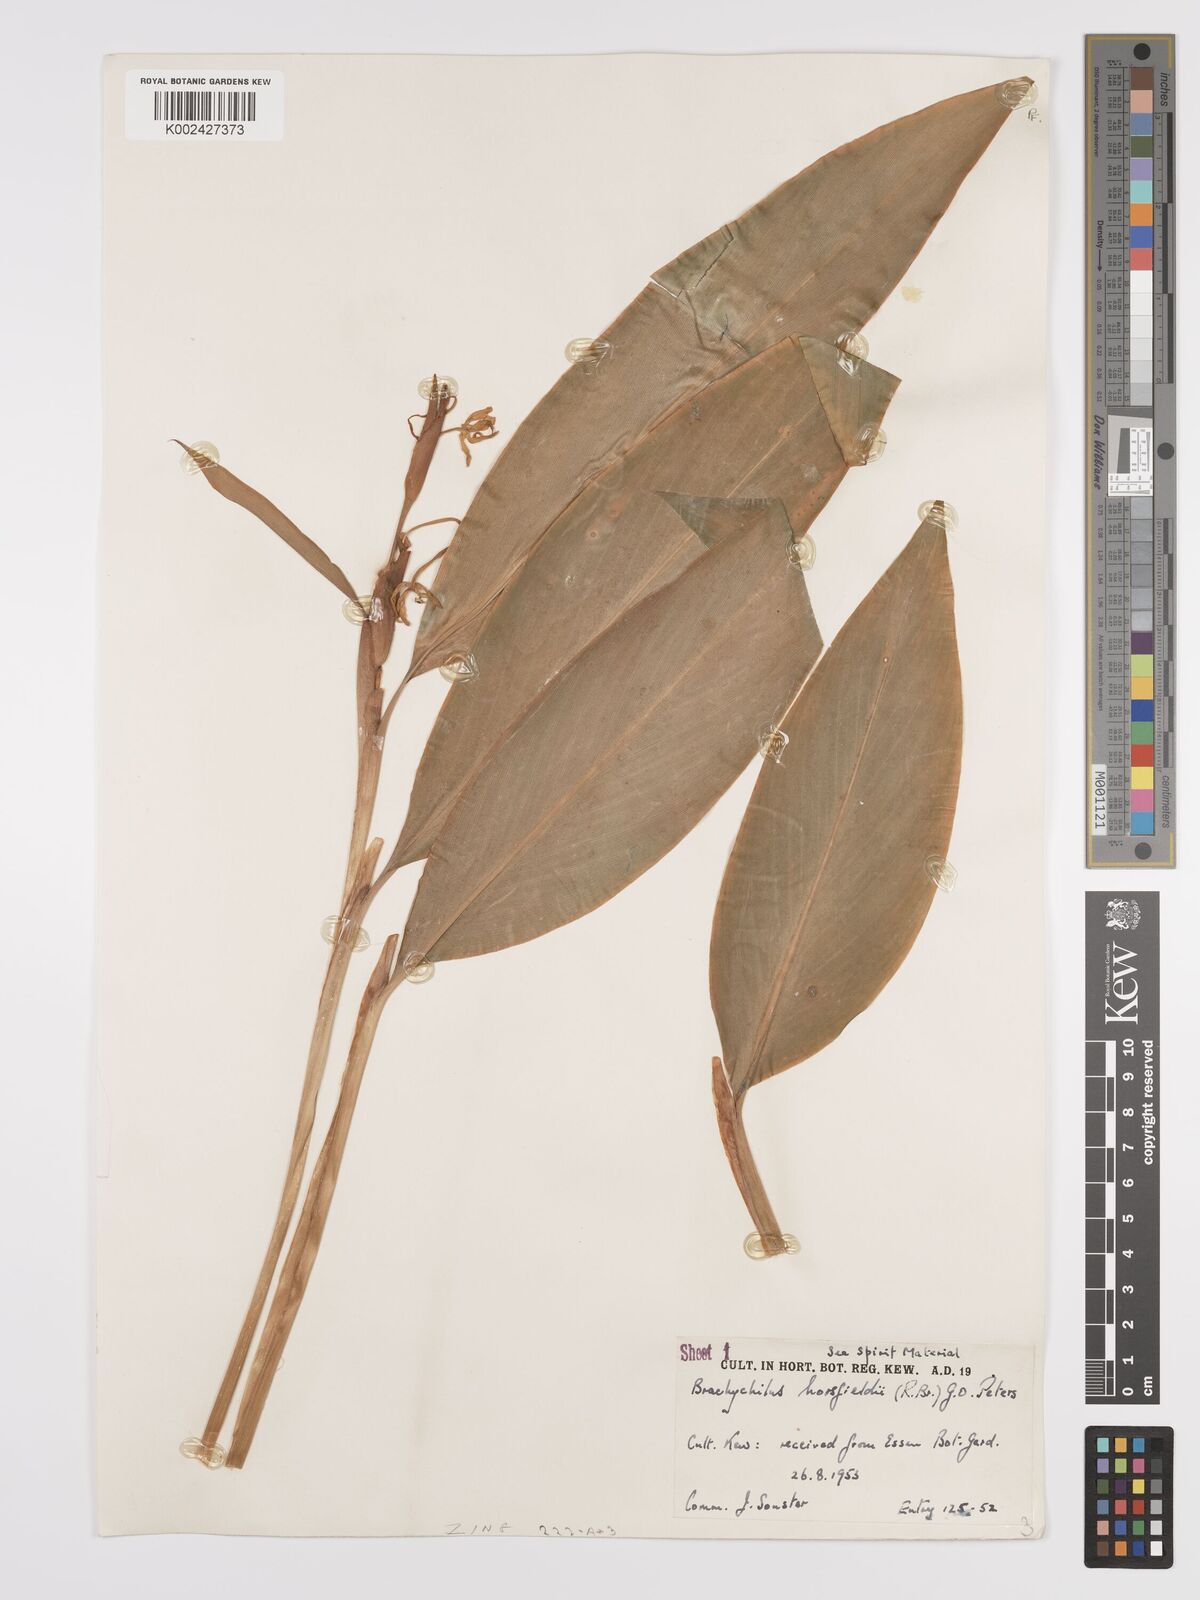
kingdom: Plantae
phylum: Tracheophyta
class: Liliopsida
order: Zingiberales
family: Zingiberaceae
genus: Hedychium
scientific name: Hedychium horsfieldii
